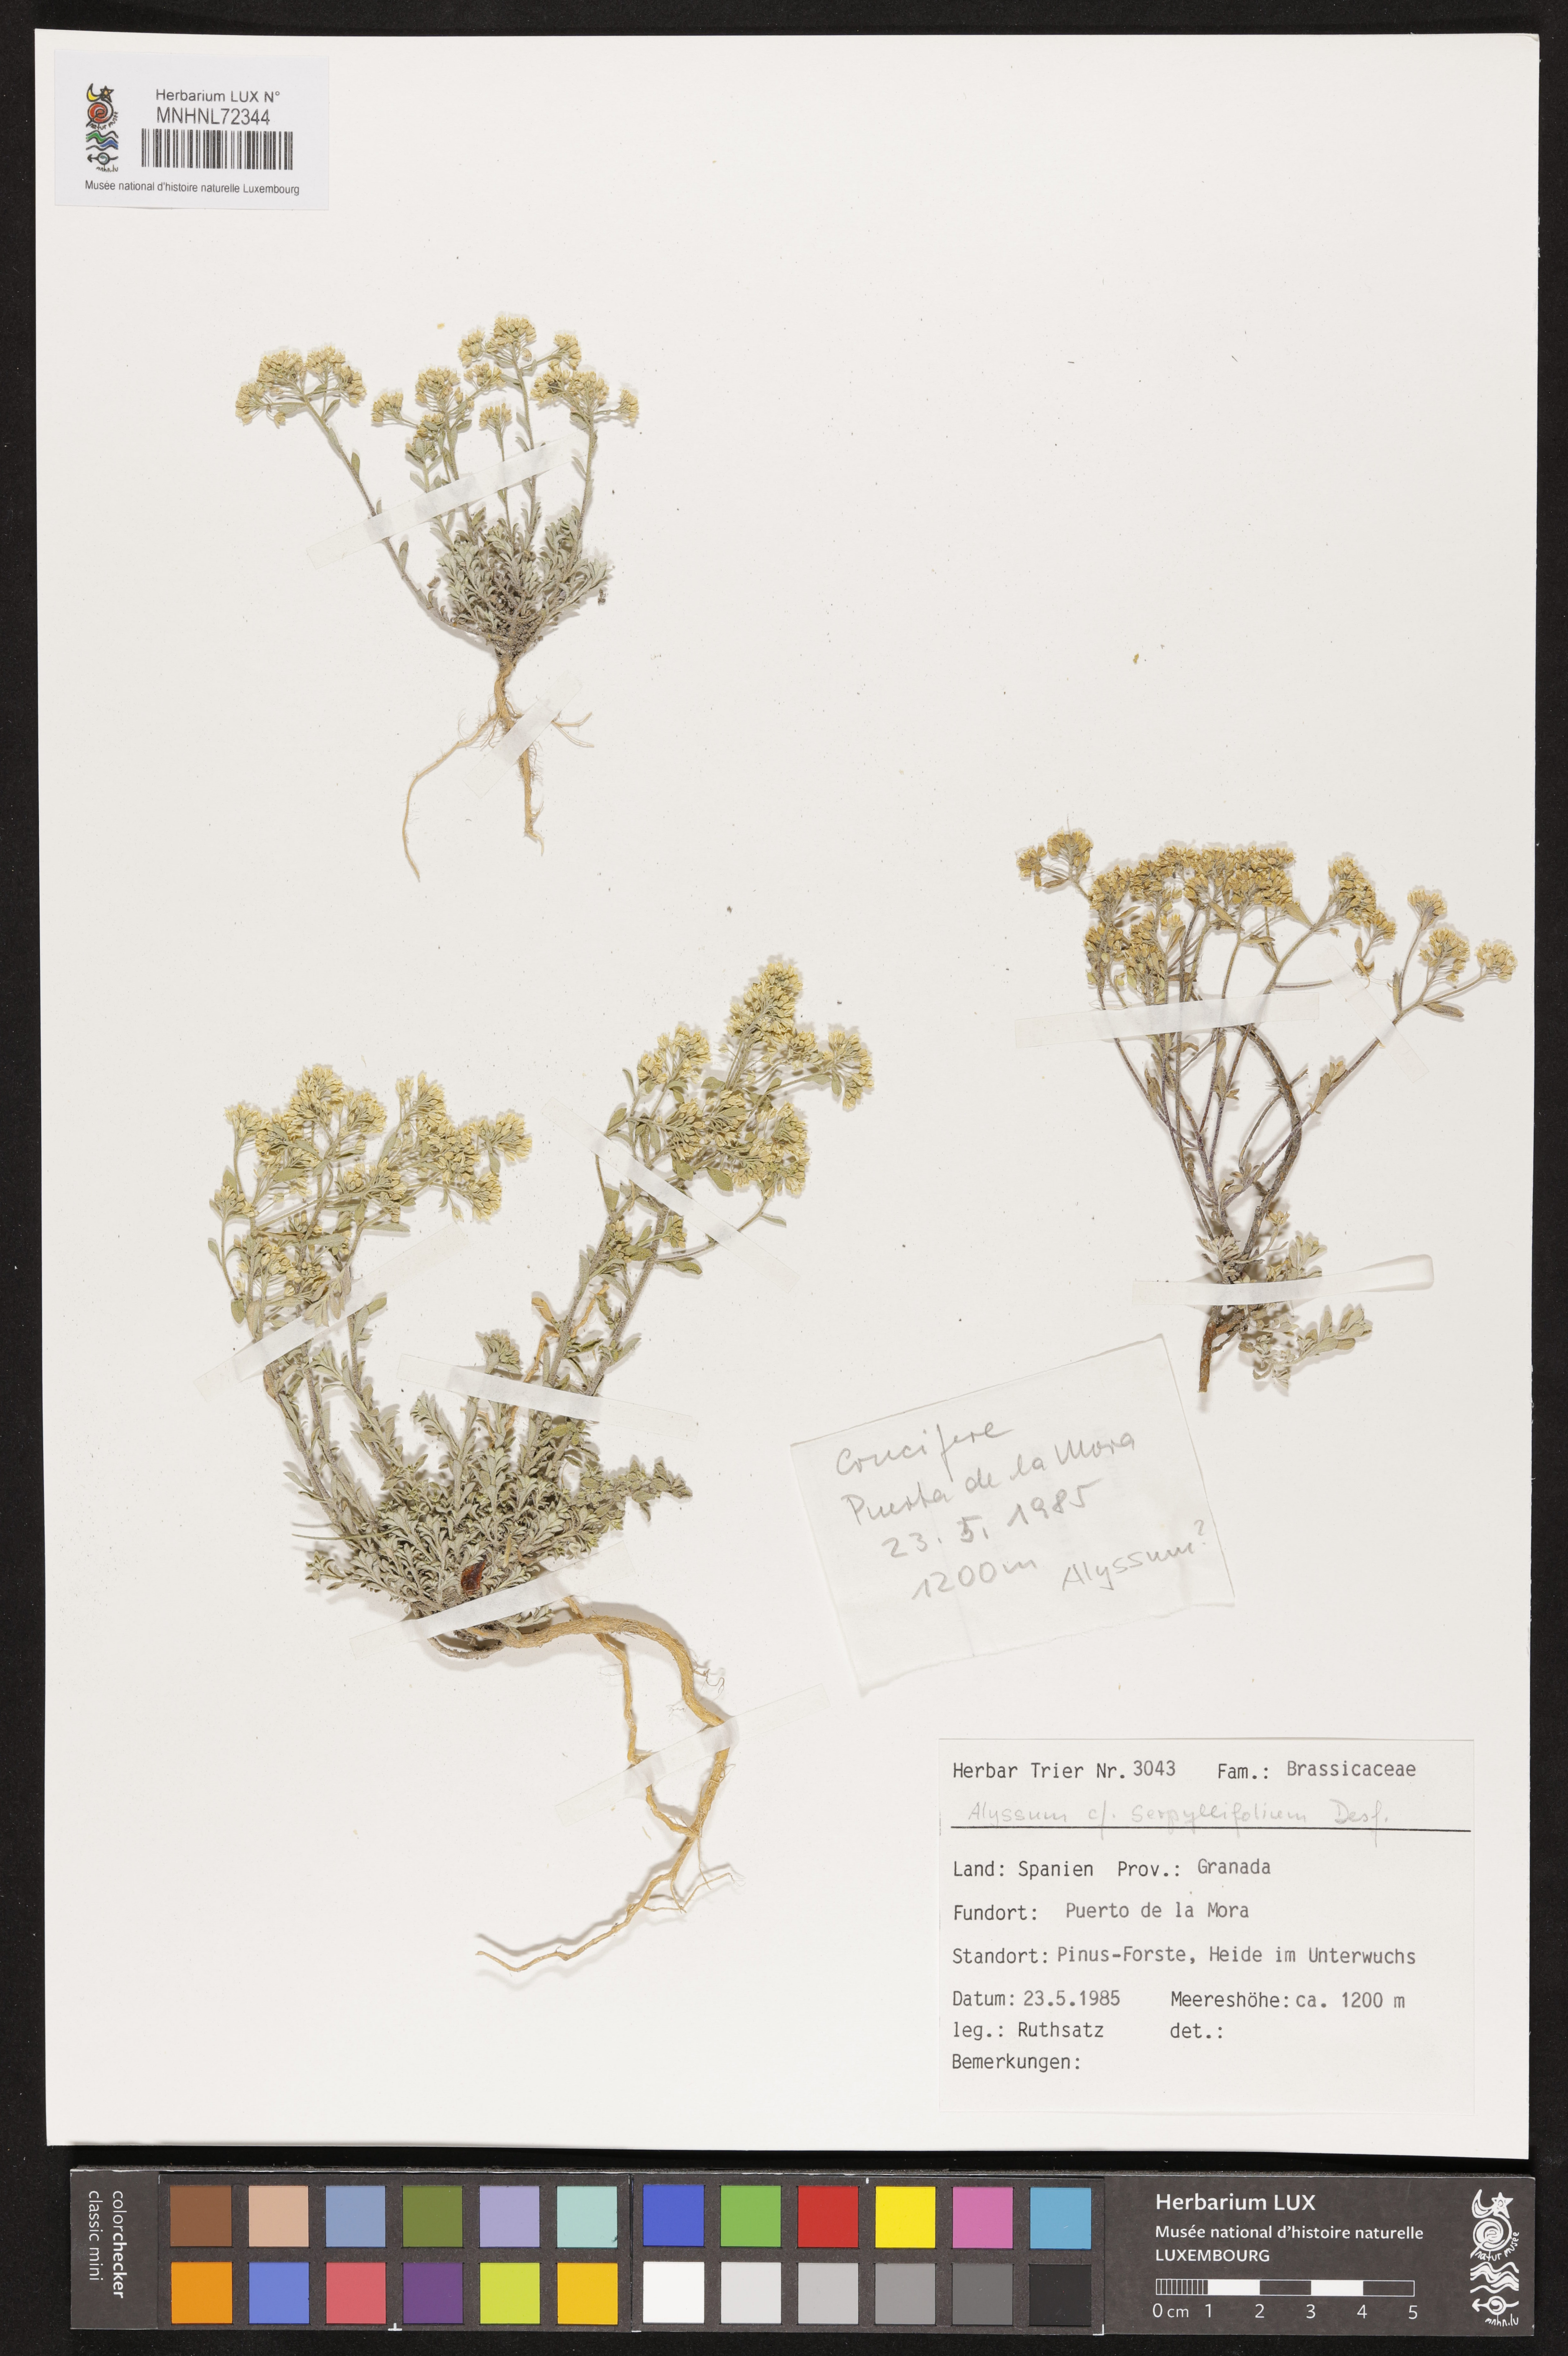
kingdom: Plantae
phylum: Tracheophyta
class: Magnoliopsida
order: Brassicales
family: Brassicaceae
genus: Odontarrhena
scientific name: Odontarrhena serpyllifolia
